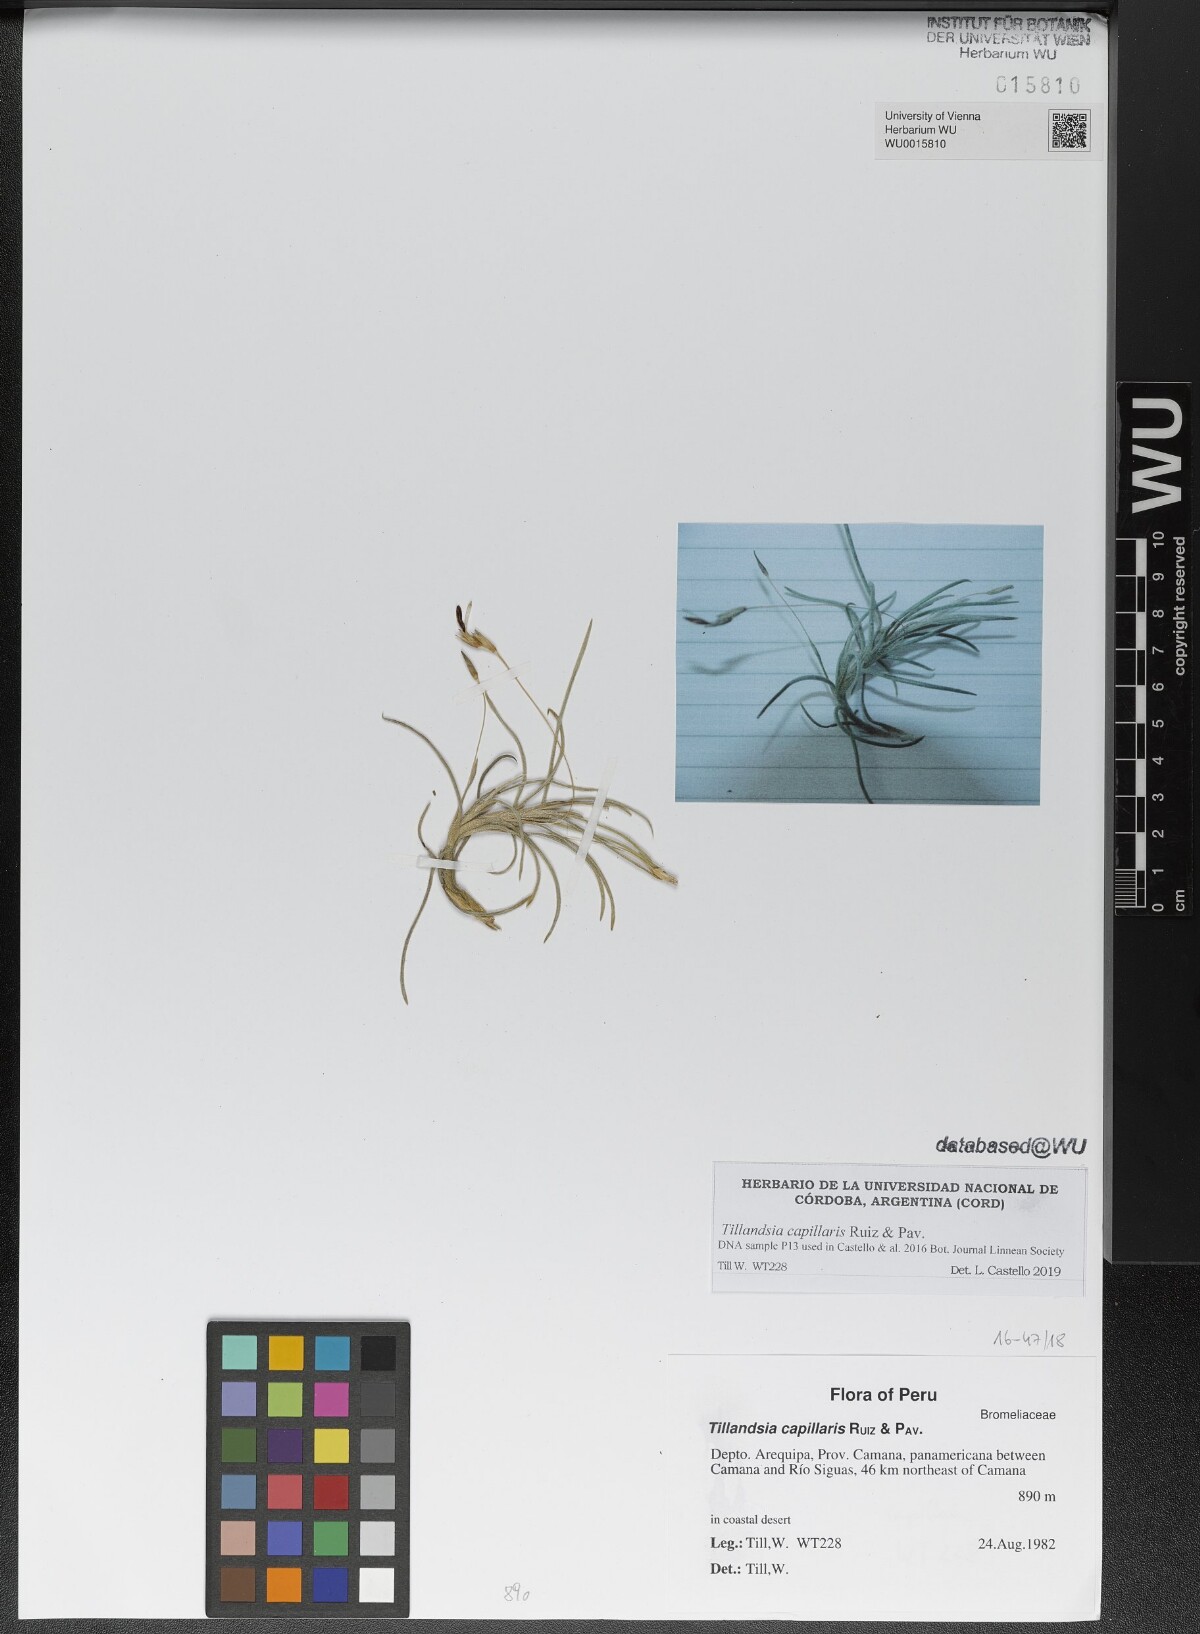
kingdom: Plantae
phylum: Tracheophyta
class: Liliopsida
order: Poales
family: Bromeliaceae
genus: Tillandsia
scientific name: Tillandsia capillaris
